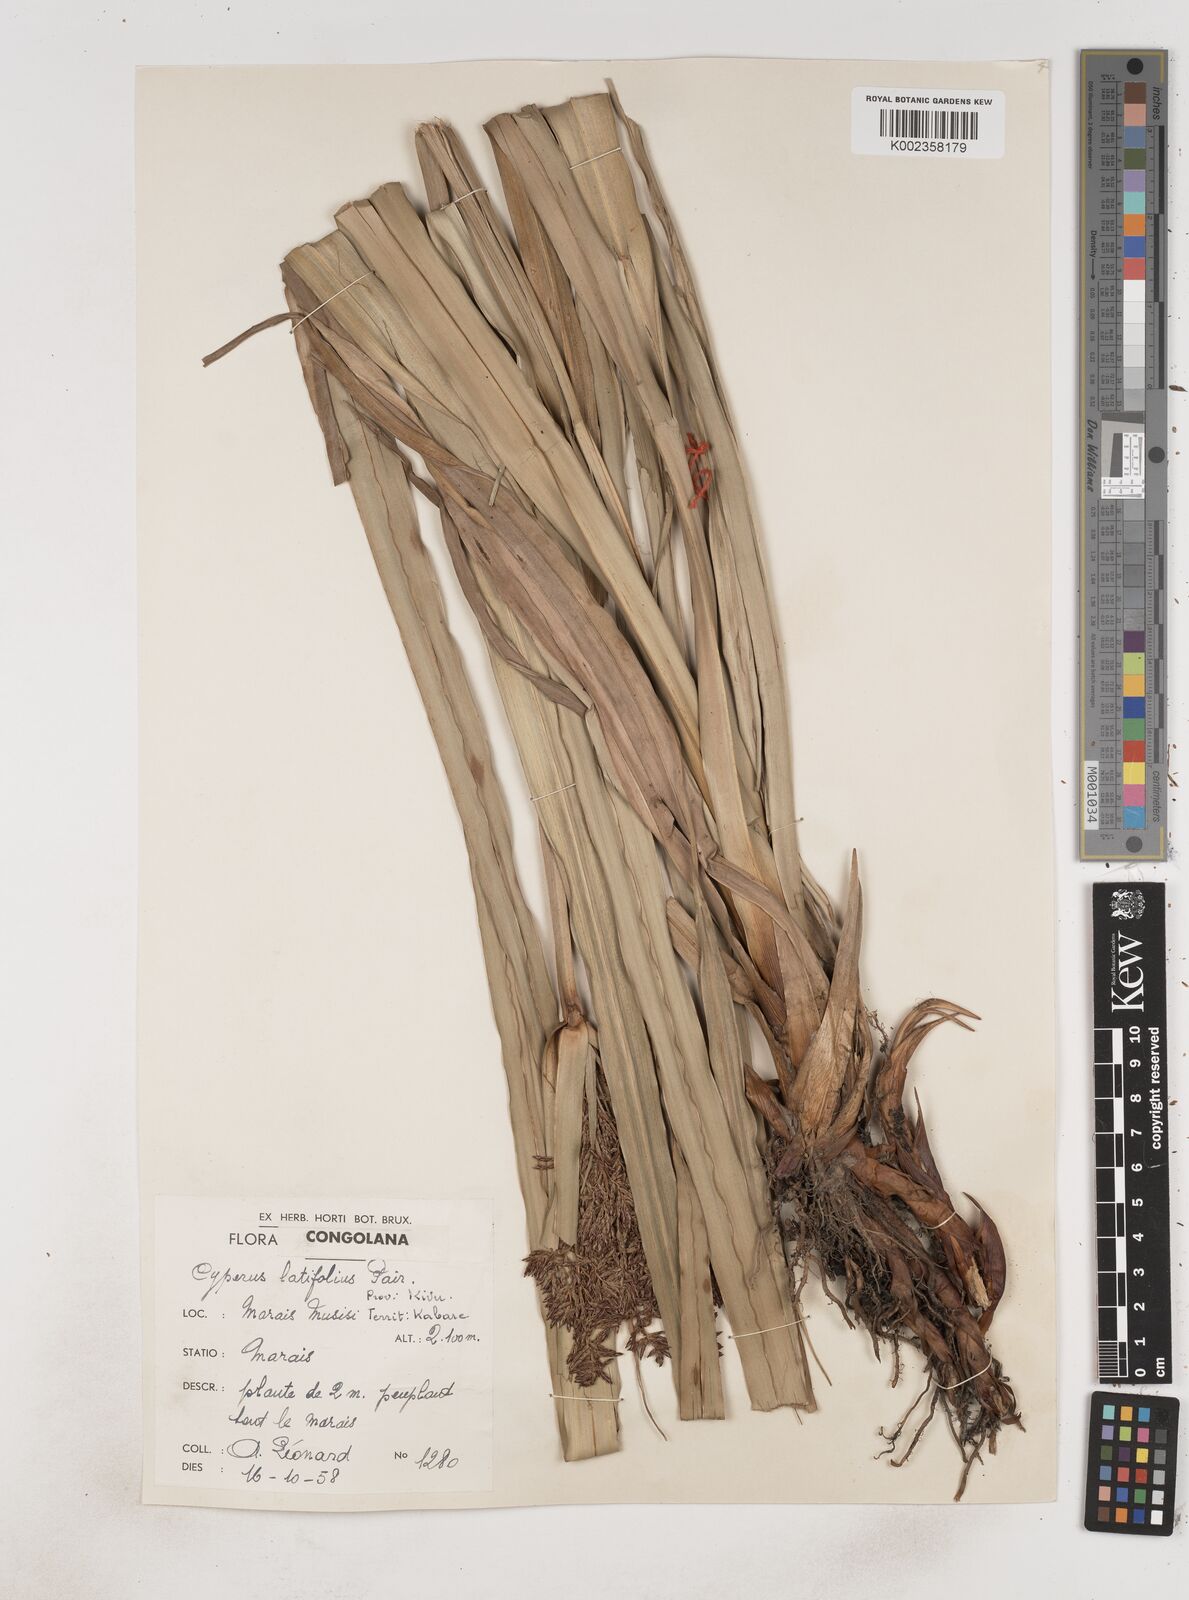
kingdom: Plantae
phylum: Tracheophyta
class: Liliopsida
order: Poales
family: Cyperaceae
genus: Cyperus
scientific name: Cyperus latifolius
